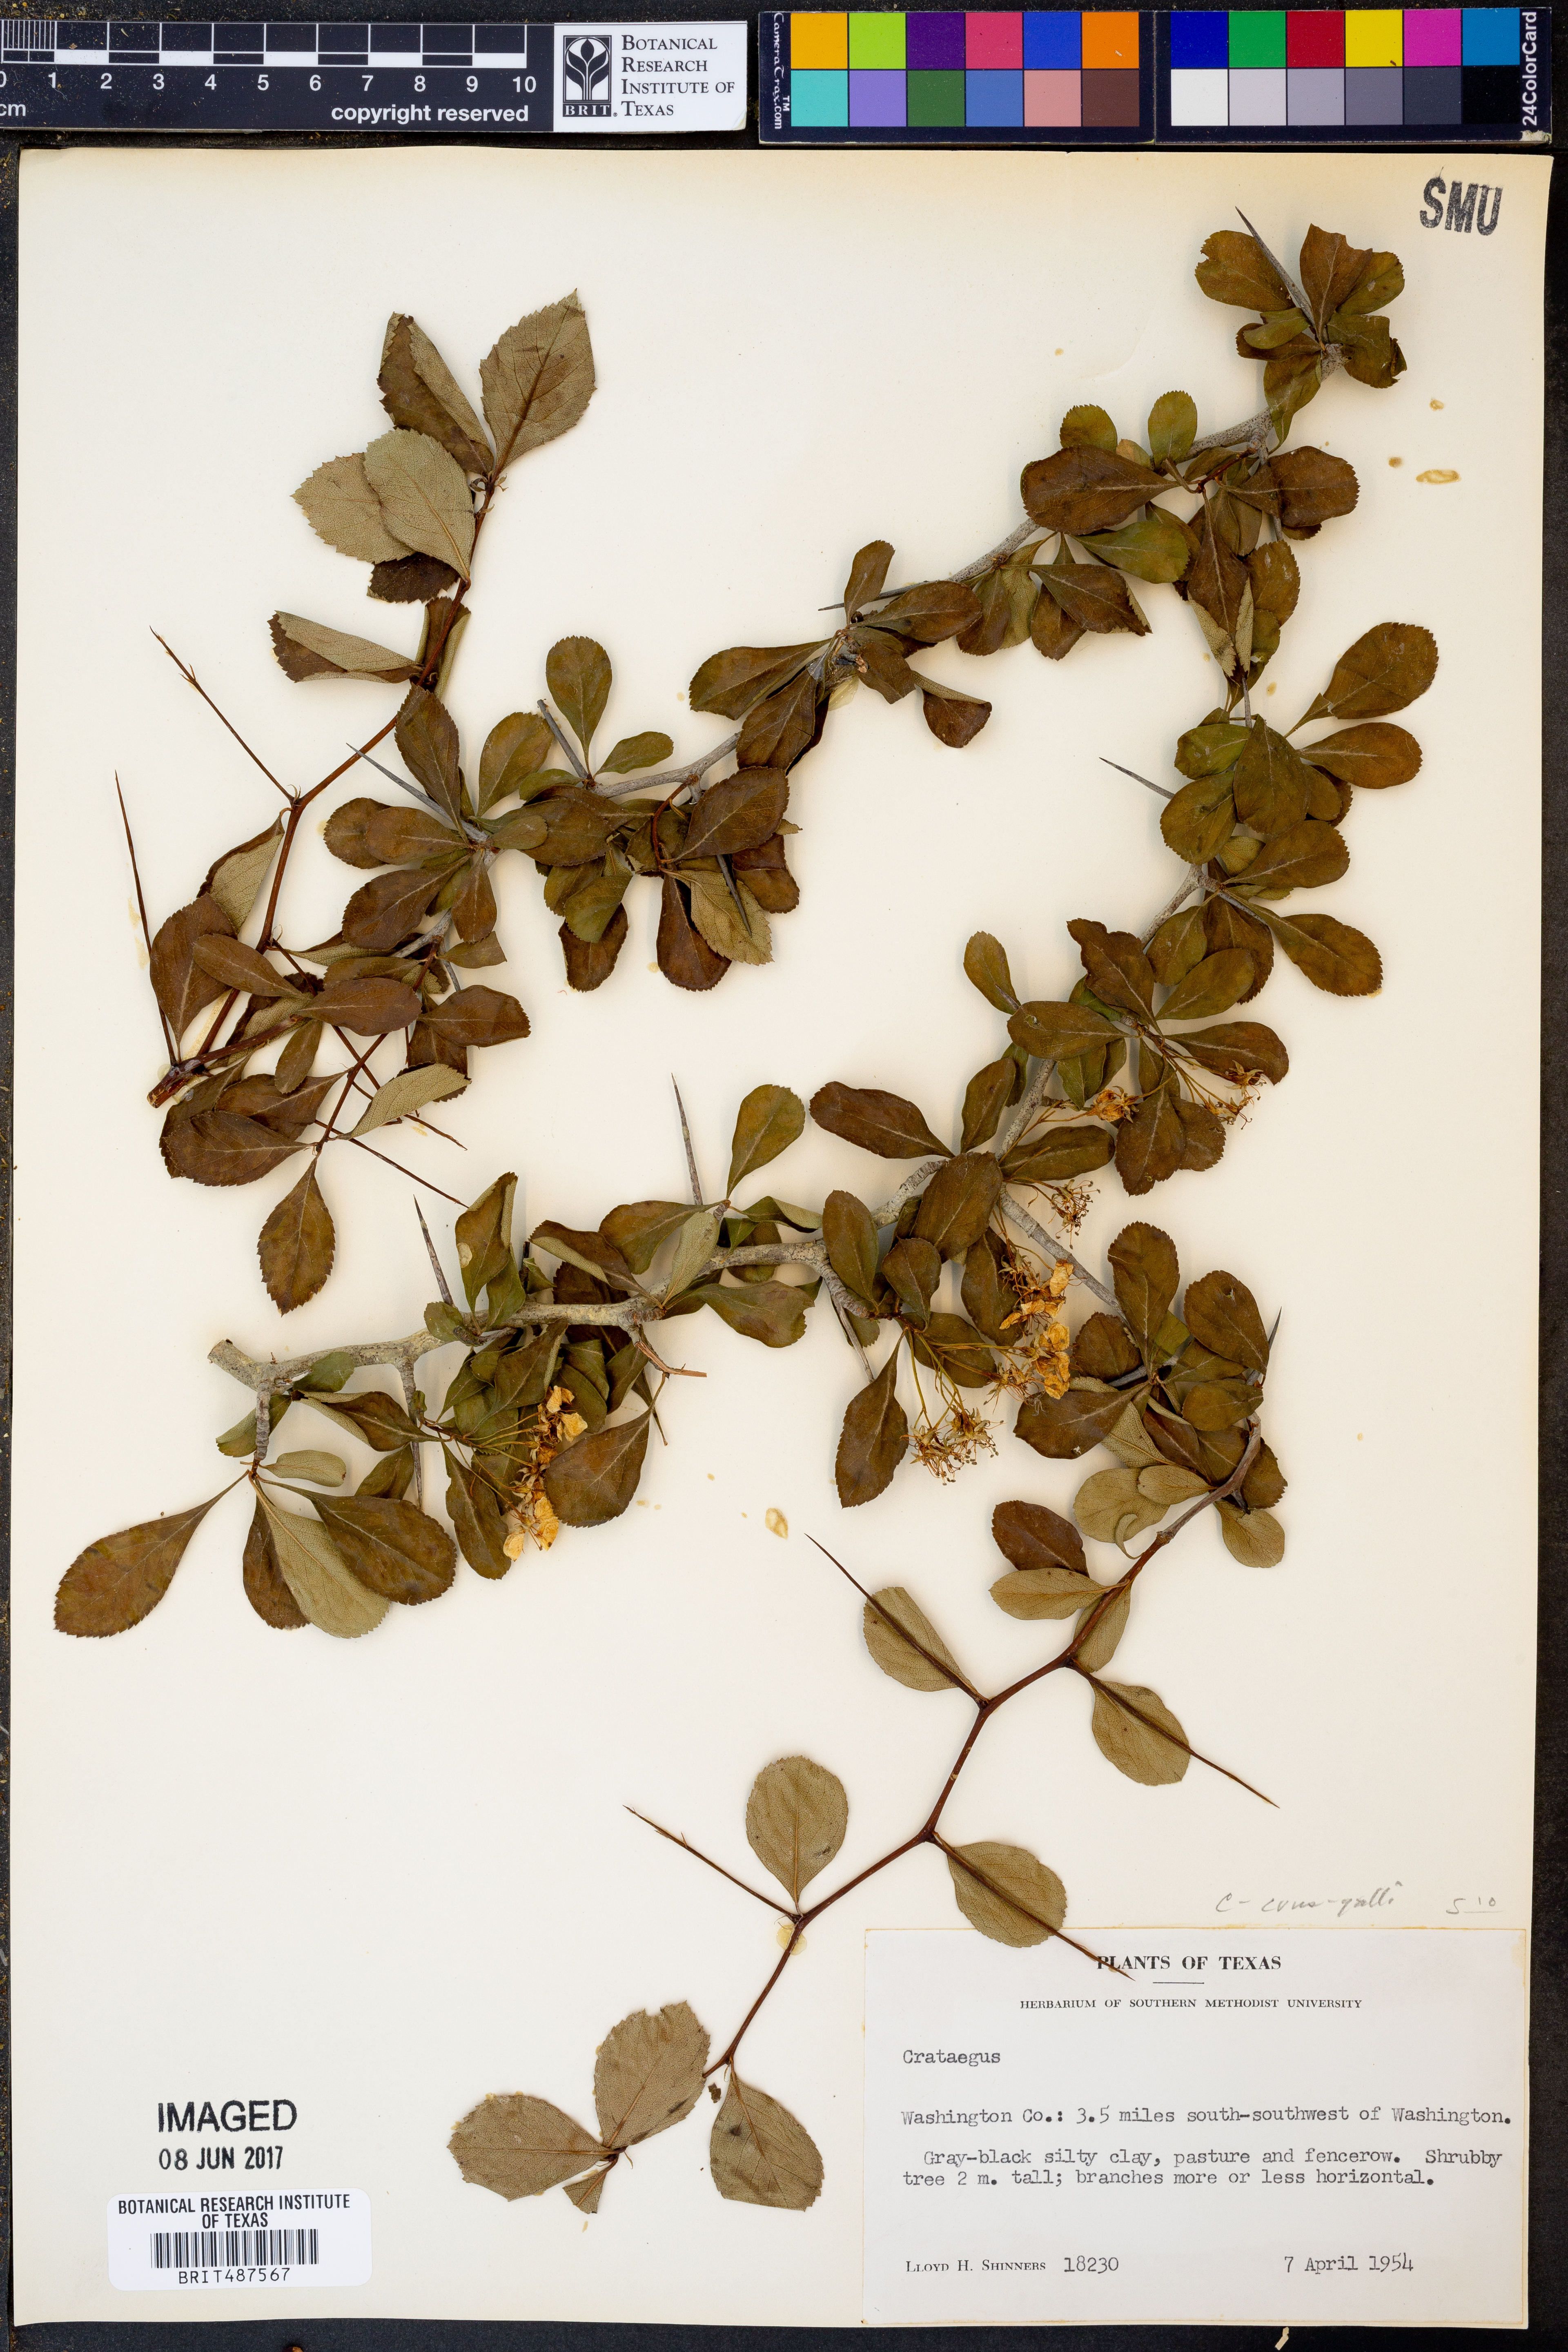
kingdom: Plantae
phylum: Tracheophyta
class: Magnoliopsida
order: Rosales
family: Rosaceae
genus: Crataegus
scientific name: Crataegus crus-galli
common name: Cockspurthorn
